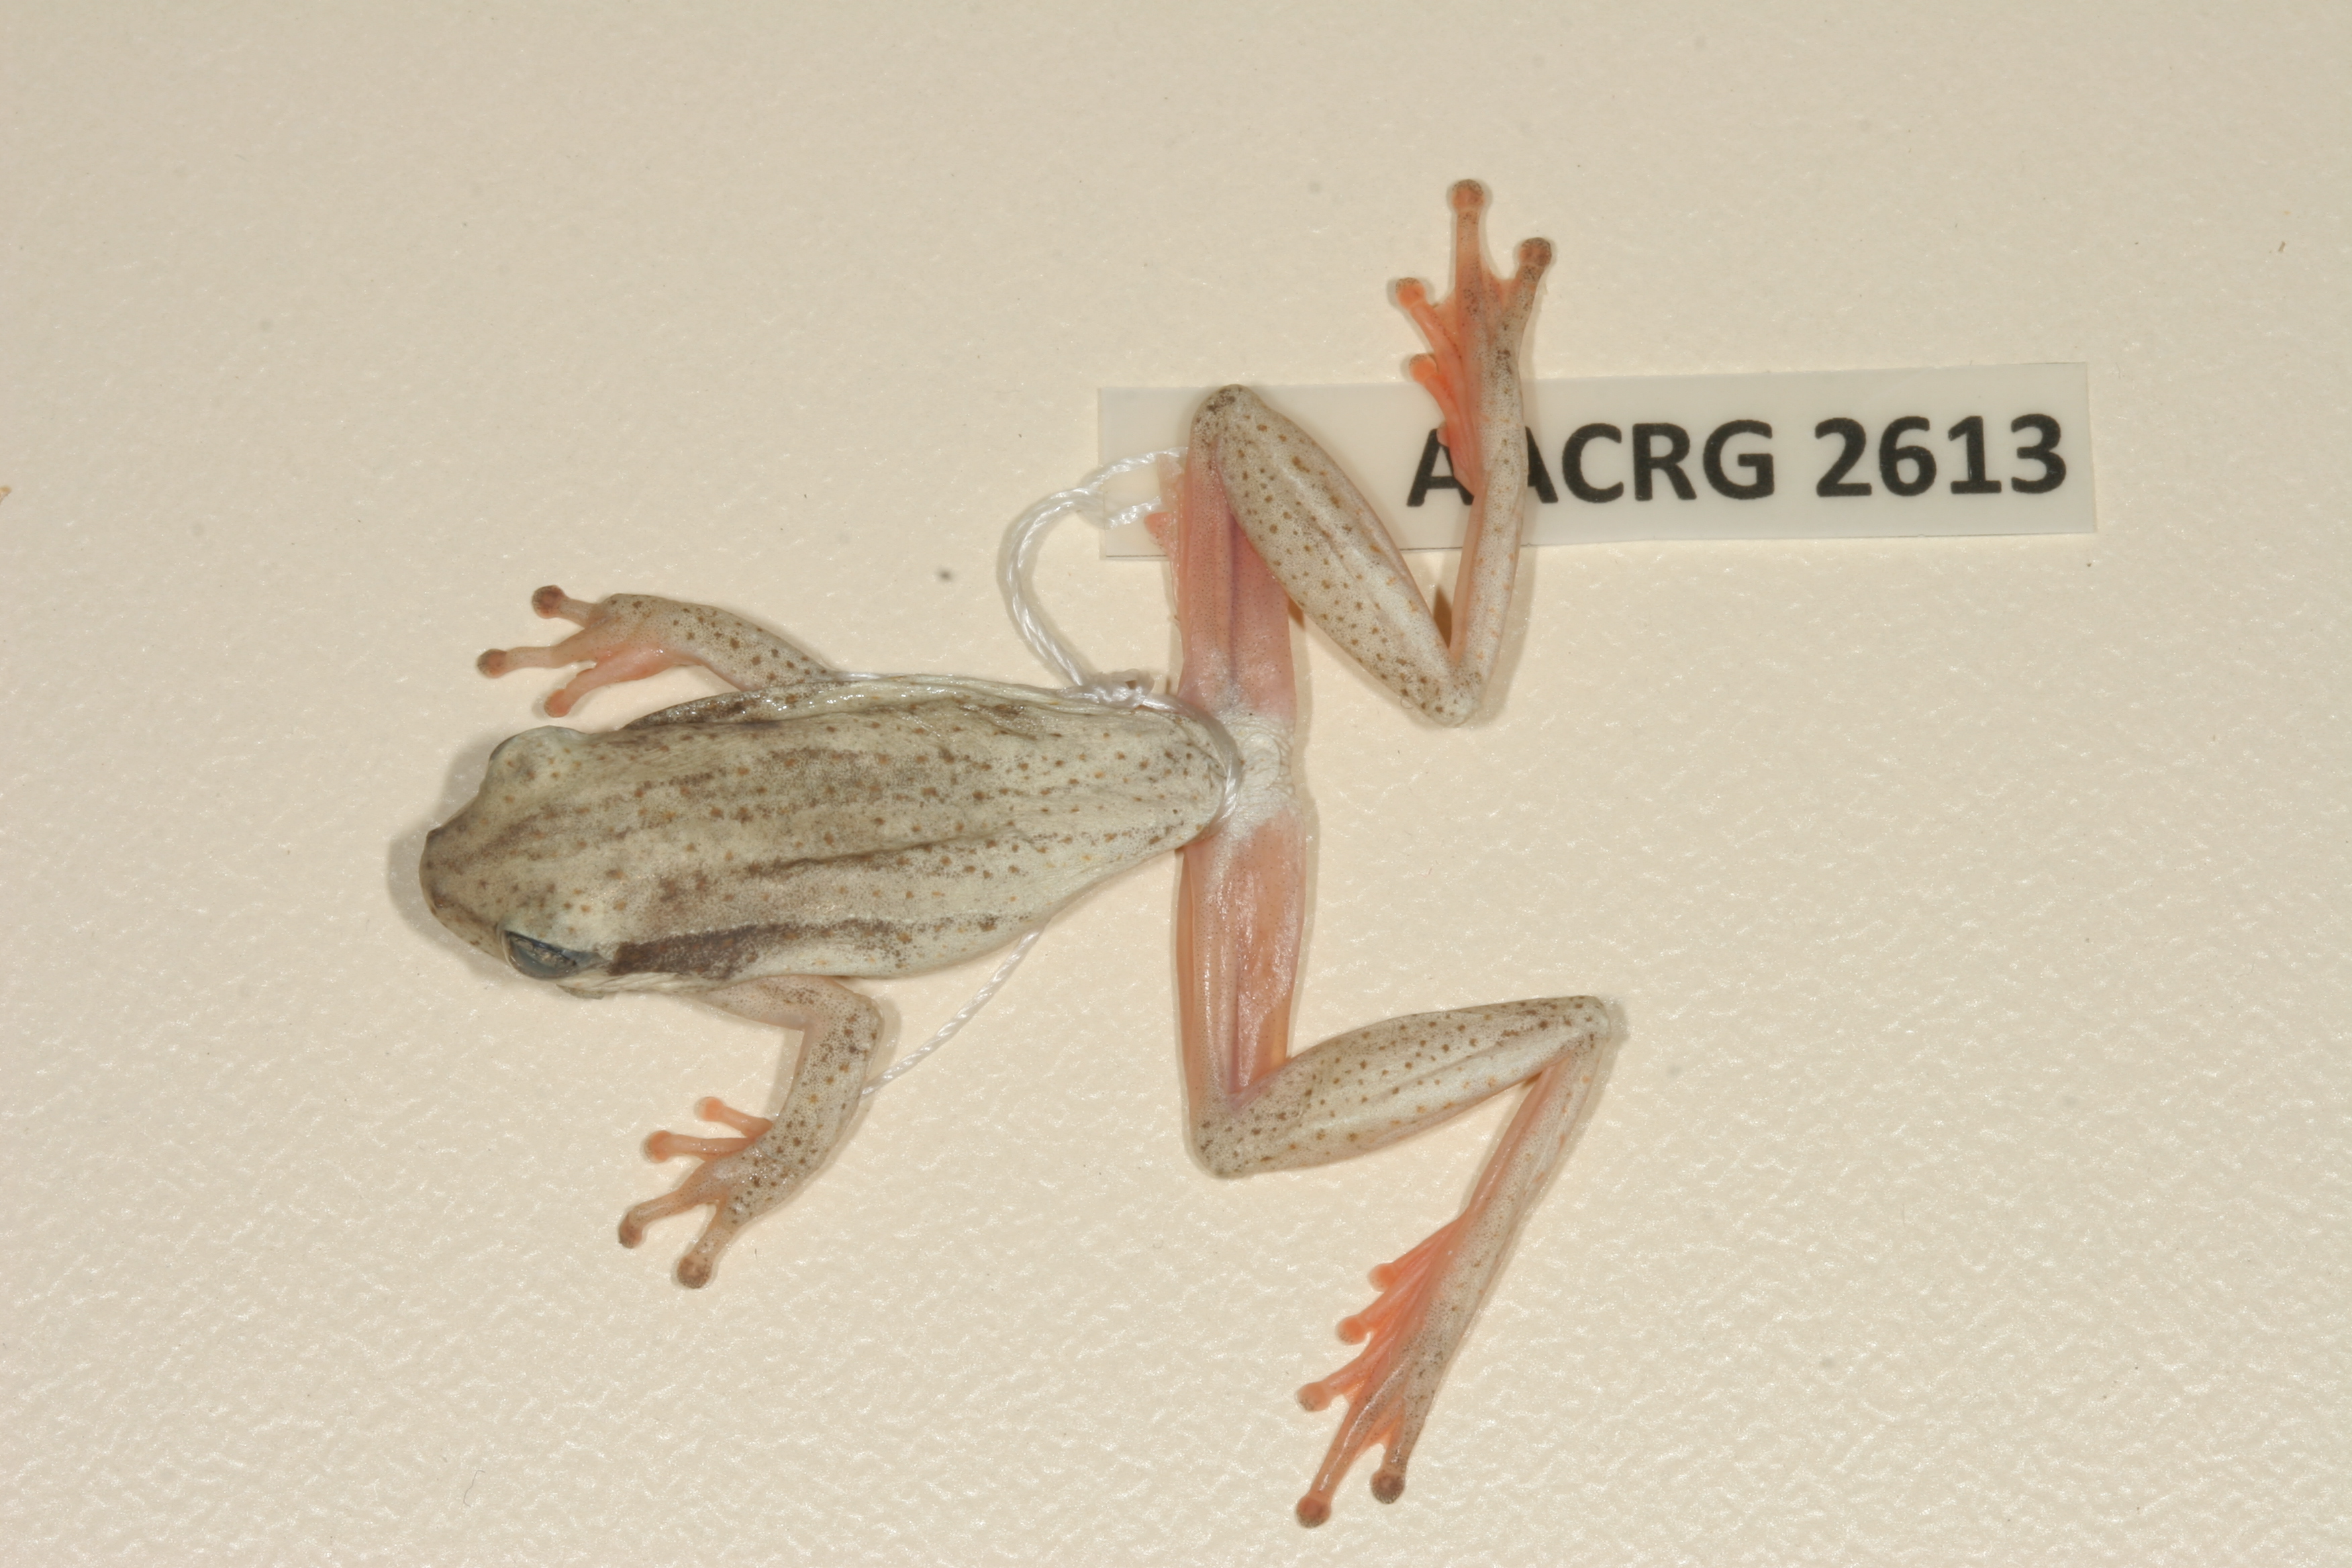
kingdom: Animalia
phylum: Chordata
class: Amphibia
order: Anura
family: Hyperoliidae
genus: Hyperolius
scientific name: Hyperolius marmoratus
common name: Painted reed frog
